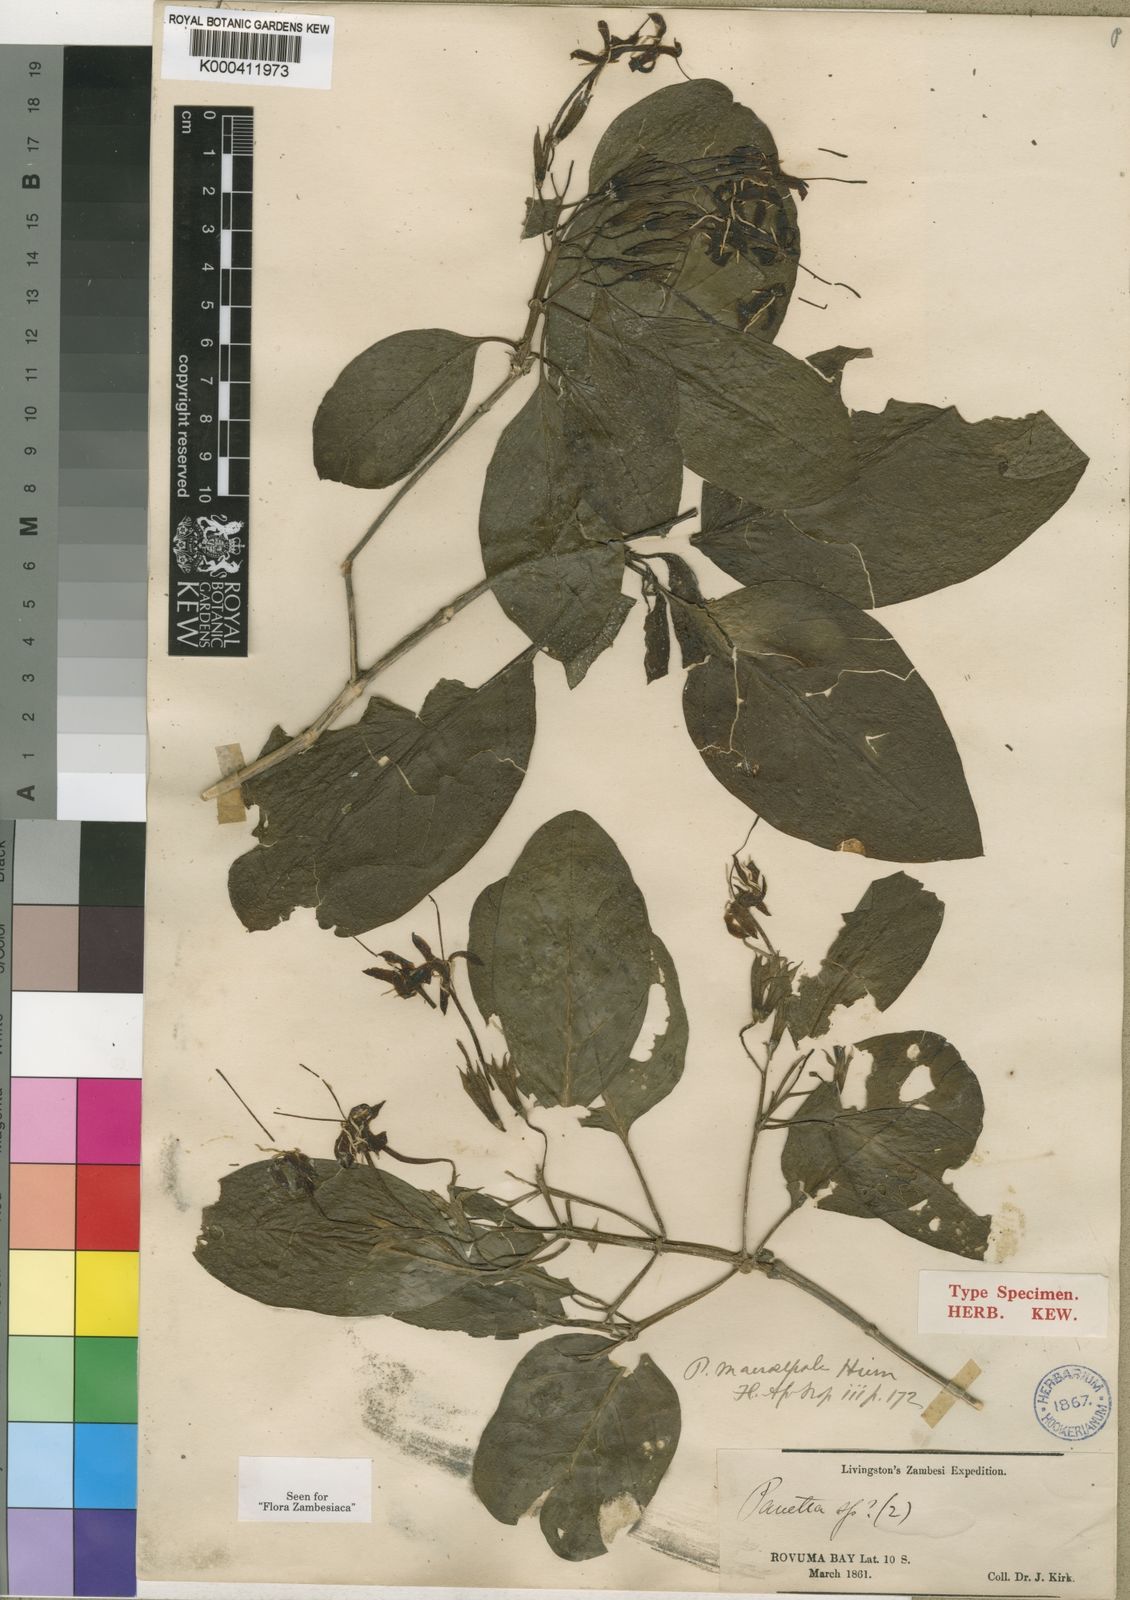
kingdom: Plantae
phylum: Tracheophyta
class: Magnoliopsida
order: Gentianales
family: Rubiaceae
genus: Pavetta
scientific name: Pavetta macrosepala
